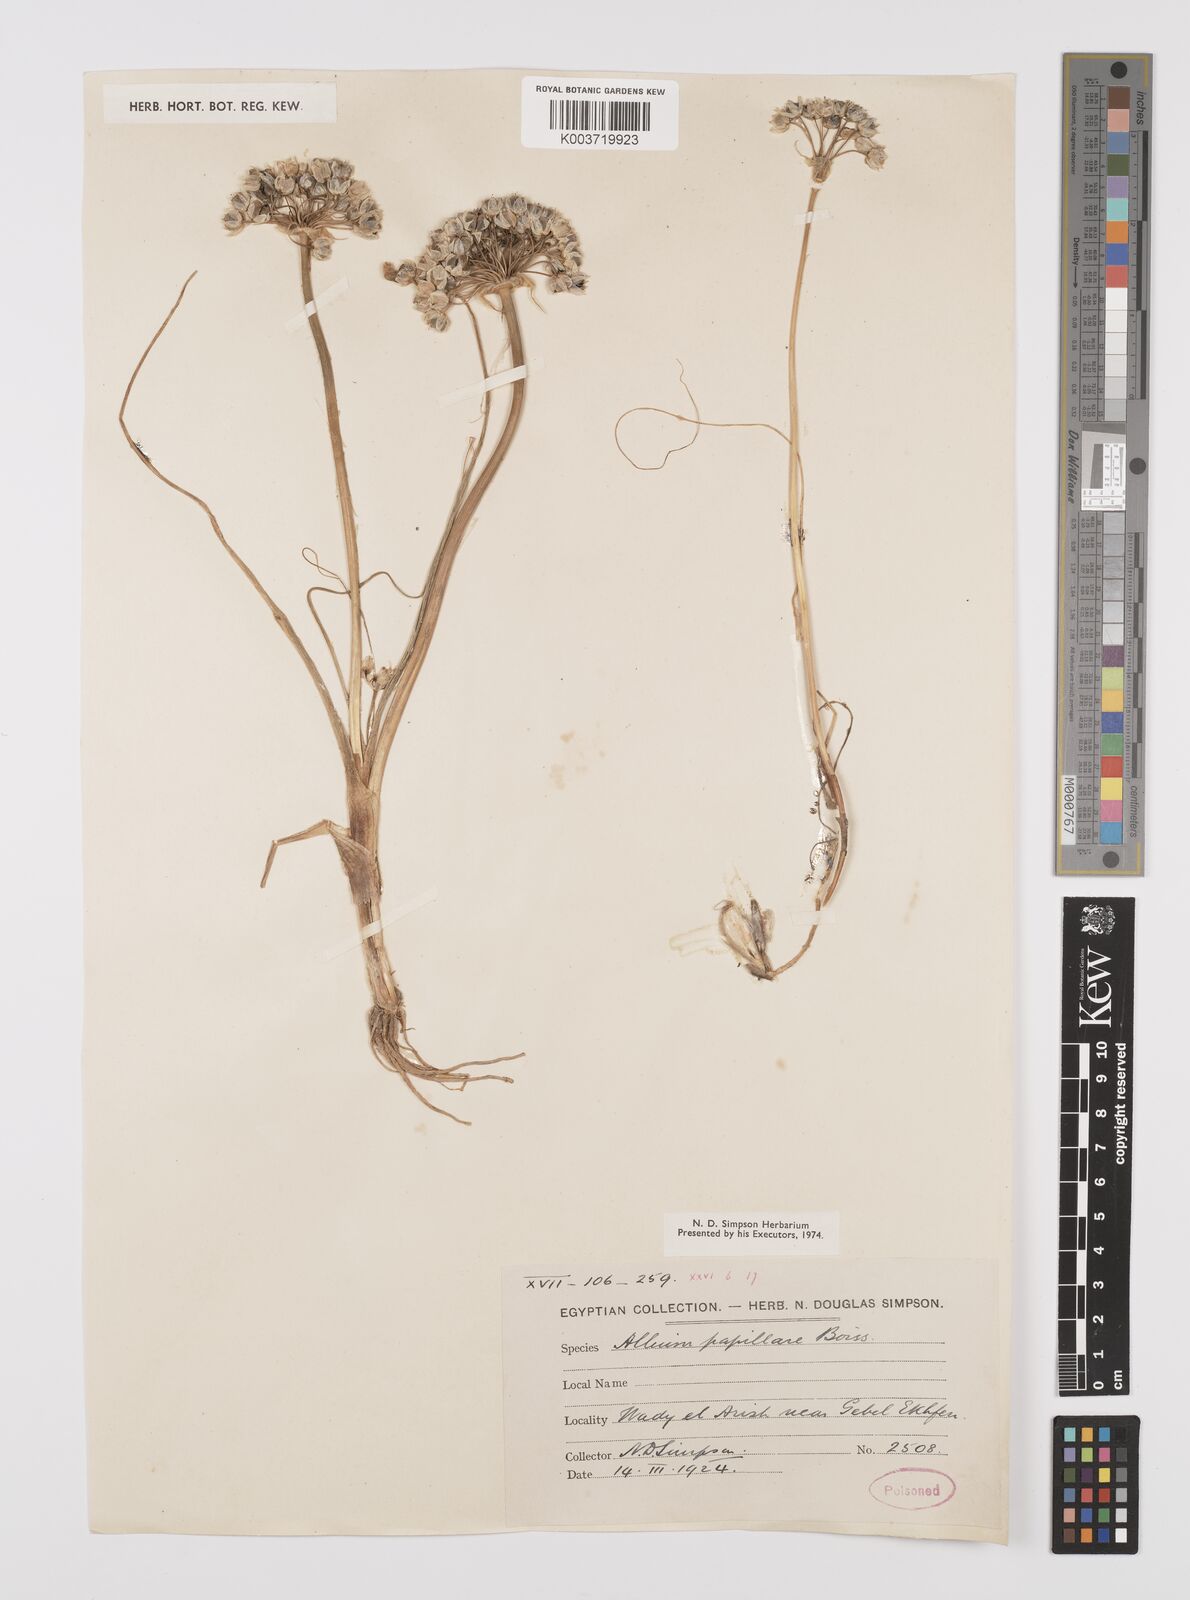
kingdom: Plantae
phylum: Tracheophyta
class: Liliopsida
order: Asparagales
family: Amaryllidaceae
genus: Allium
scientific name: Allium papillare
